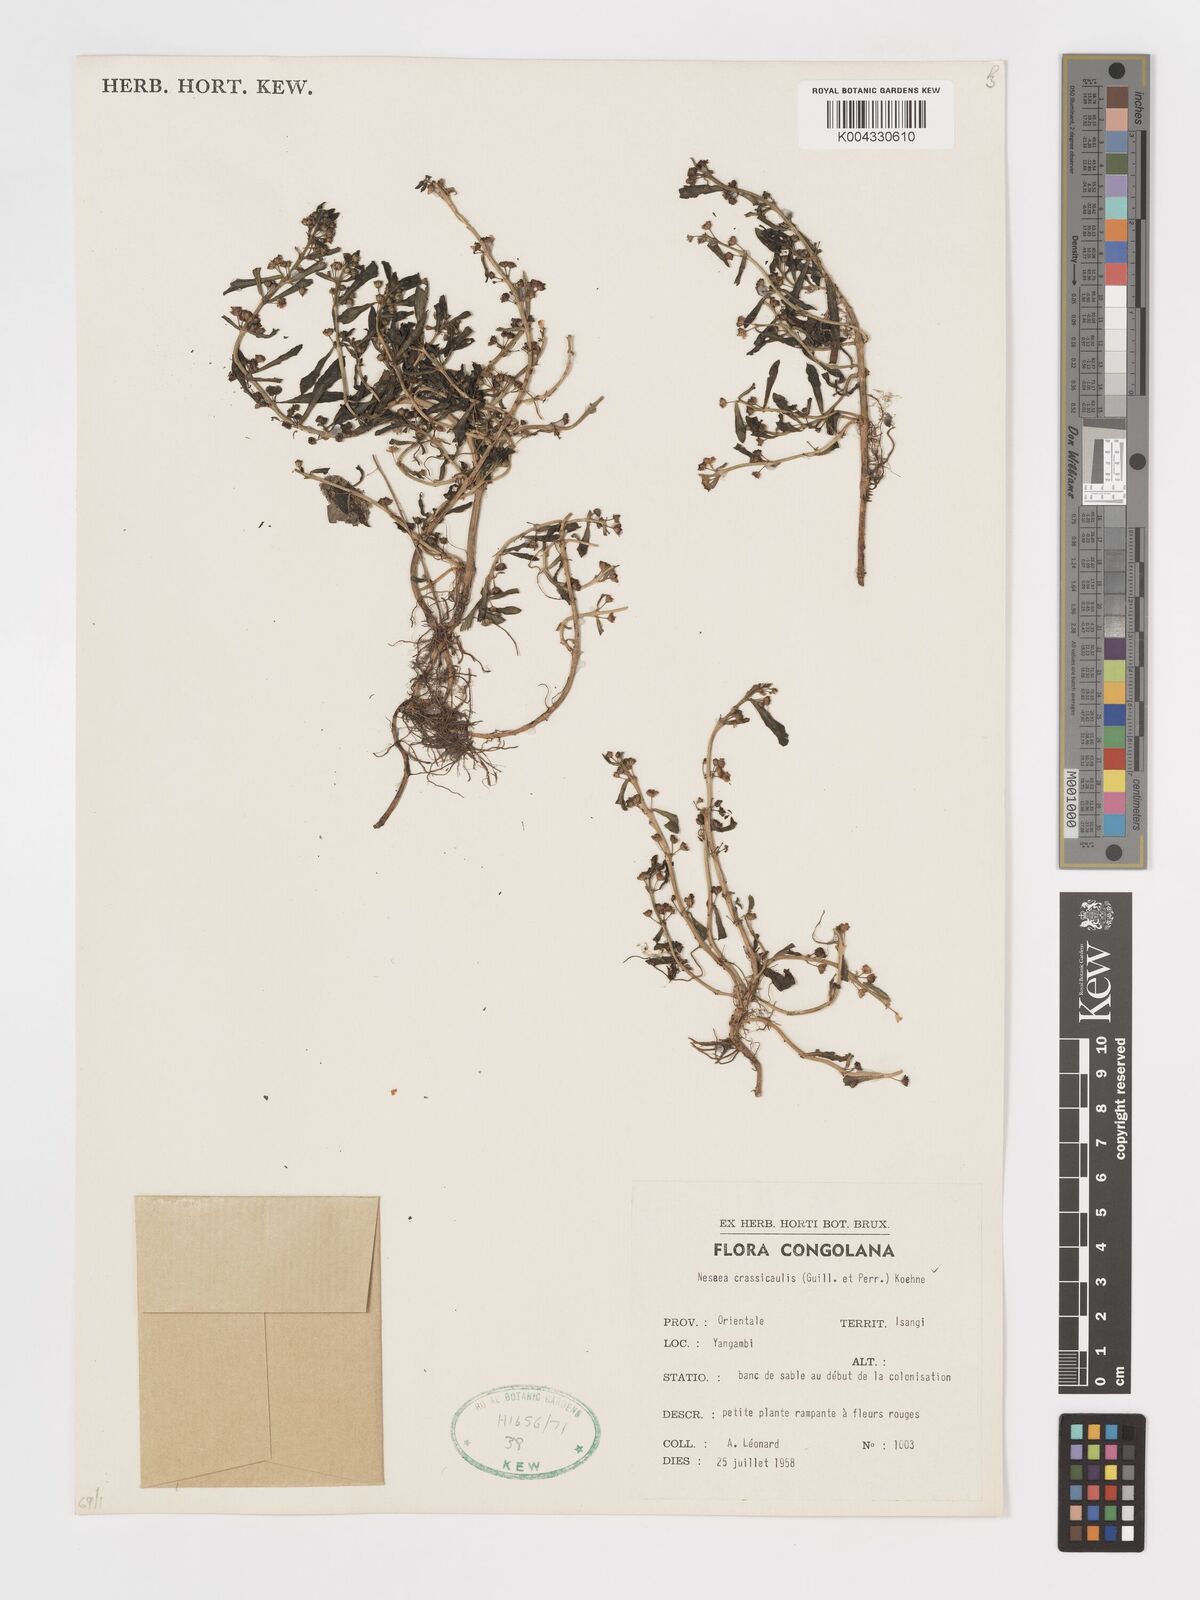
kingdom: Plantae
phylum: Tracheophyta
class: Magnoliopsida
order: Myrtales
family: Lythraceae
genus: Ammannia
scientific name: Ammannia crassicaulis
